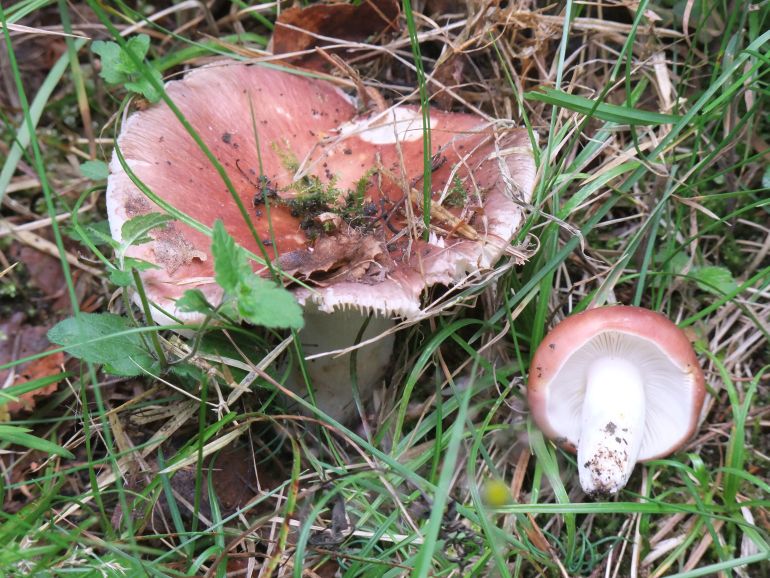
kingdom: Fungi
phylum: Basidiomycota
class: Agaricomycetes
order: Russulales
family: Russulaceae
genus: Russula
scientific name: Russula vesca
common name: spiselig skørhat
